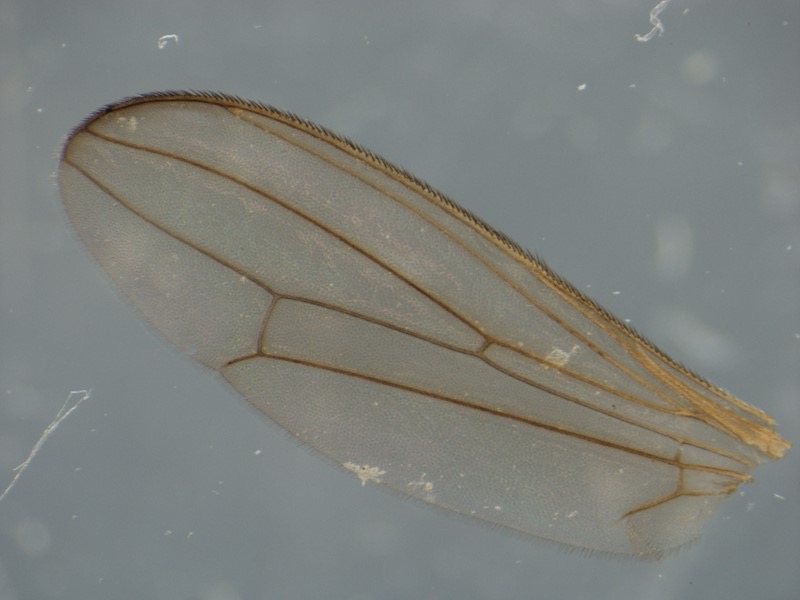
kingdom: Animalia
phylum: Arthropoda
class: Insecta
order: Diptera
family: Micropezidae
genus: Cnodacophora
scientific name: Cnodacophora stylifera
